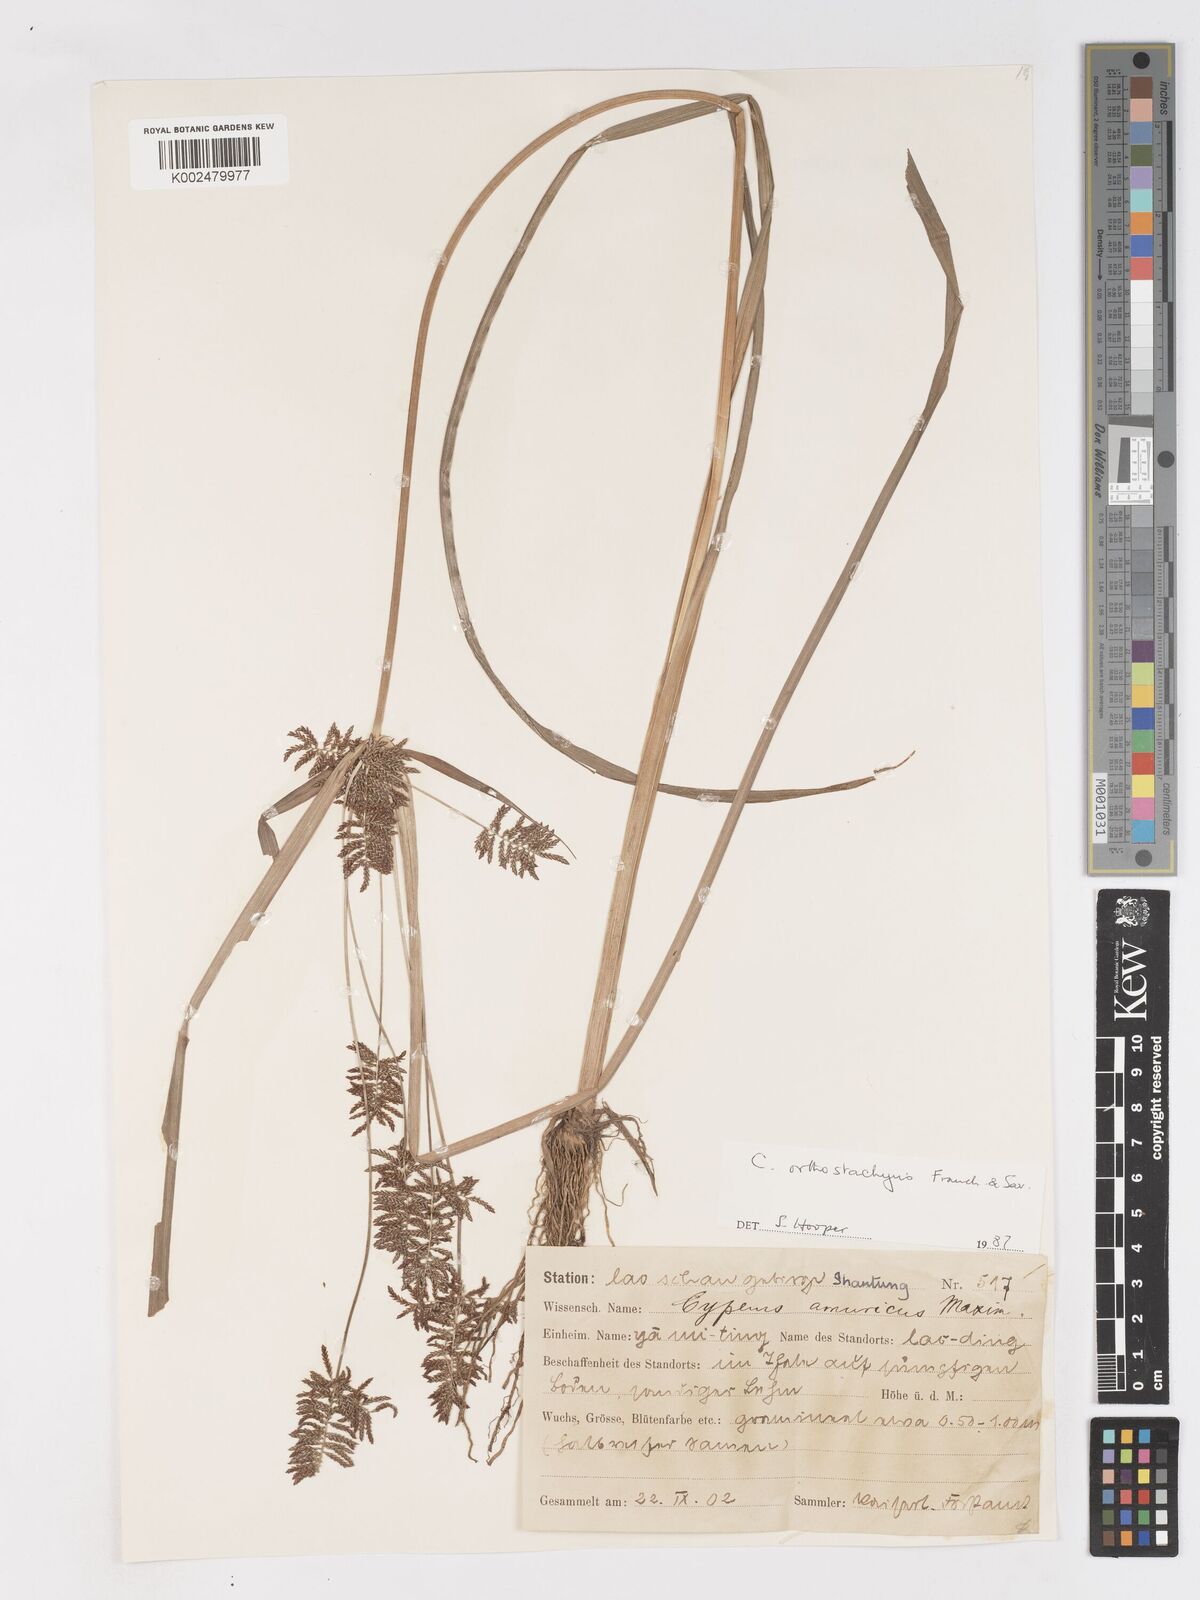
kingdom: Plantae
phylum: Tracheophyta
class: Liliopsida
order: Poales
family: Cyperaceae
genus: Cyperus
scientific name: Cyperus orthostachyus
